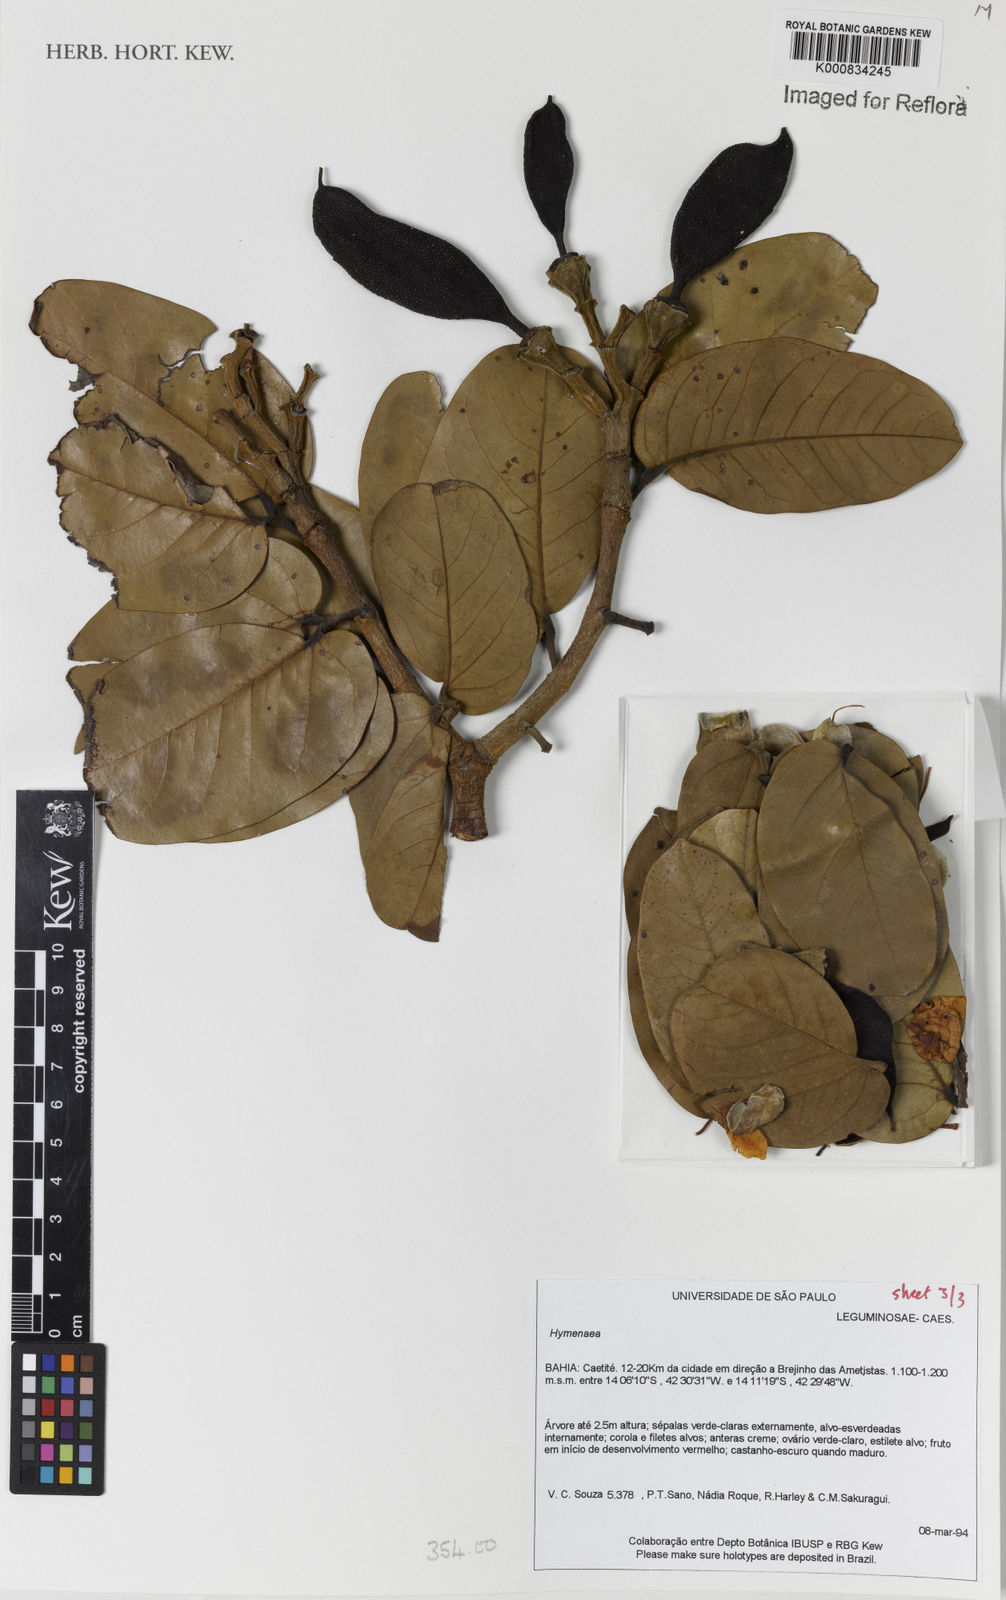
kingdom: Plantae
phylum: Tracheophyta
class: Magnoliopsida
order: Fabales
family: Fabaceae
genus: Hymenaea
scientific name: Hymenaea
